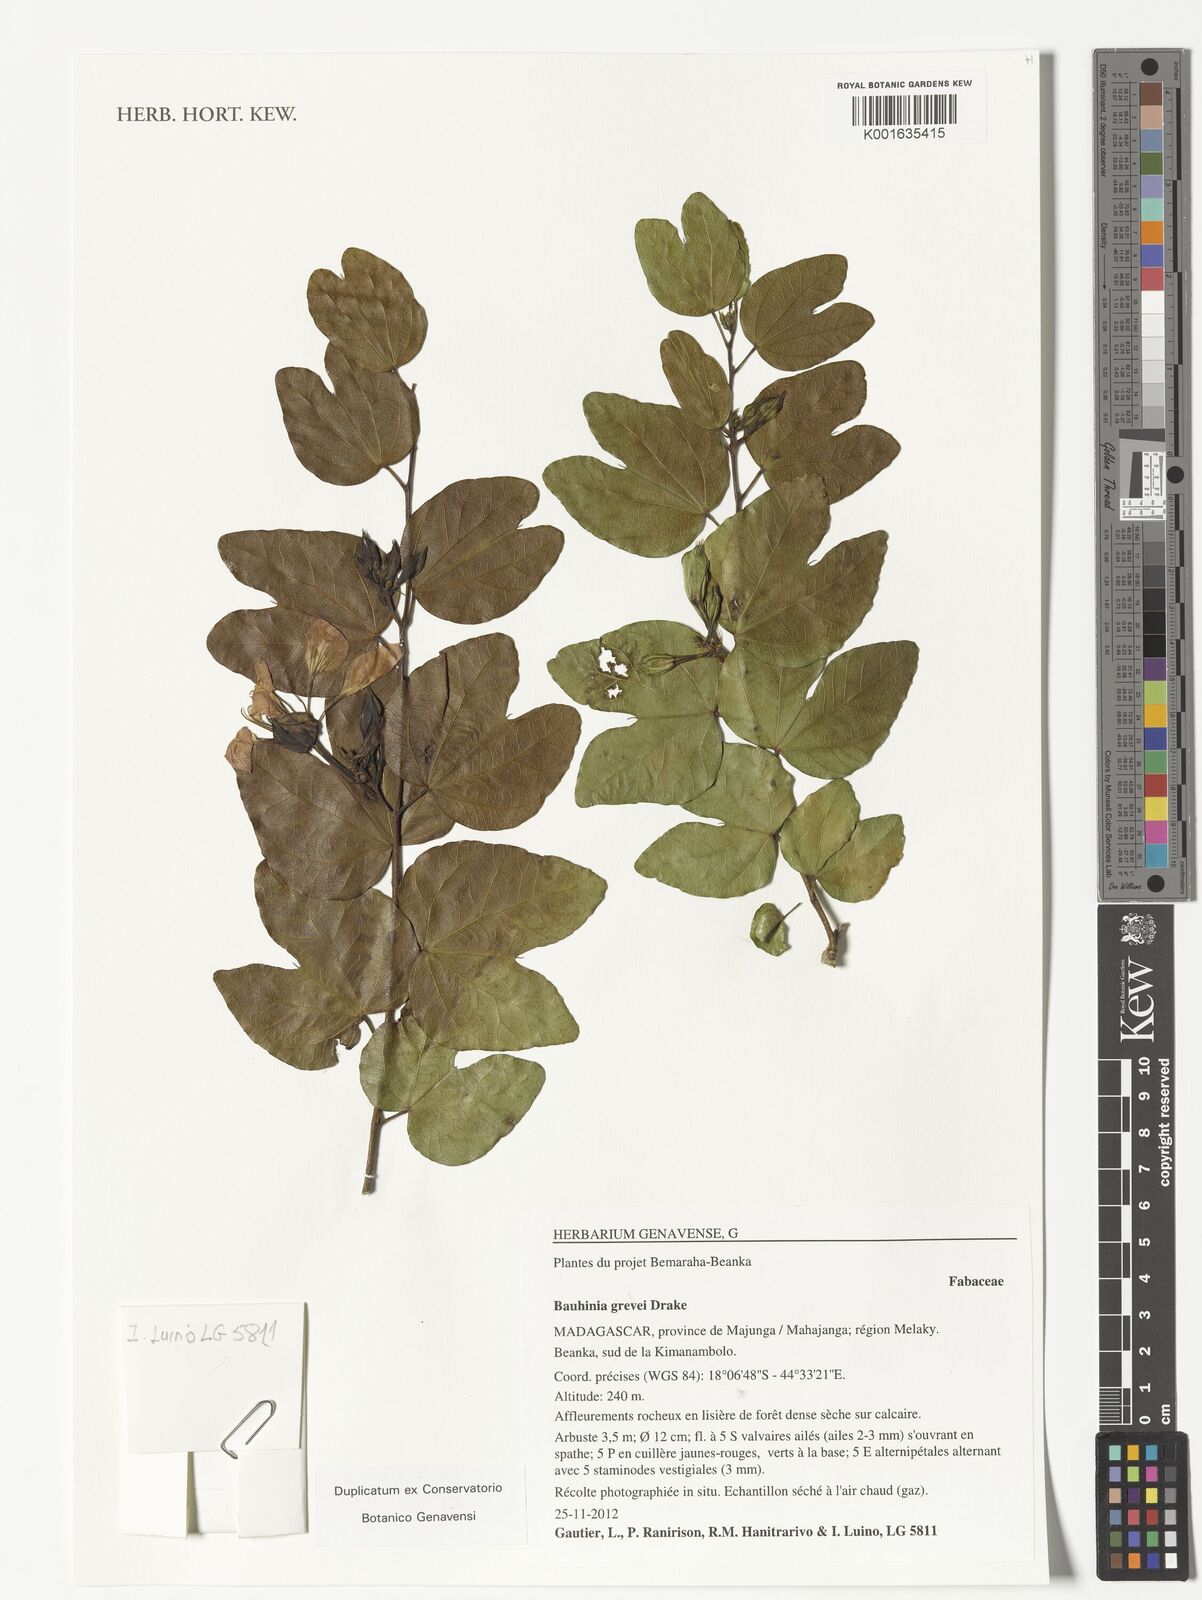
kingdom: Plantae
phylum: Tracheophyta
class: Magnoliopsida
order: Fabales
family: Fabaceae
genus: Bauhinia
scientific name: Bauhinia grevei
